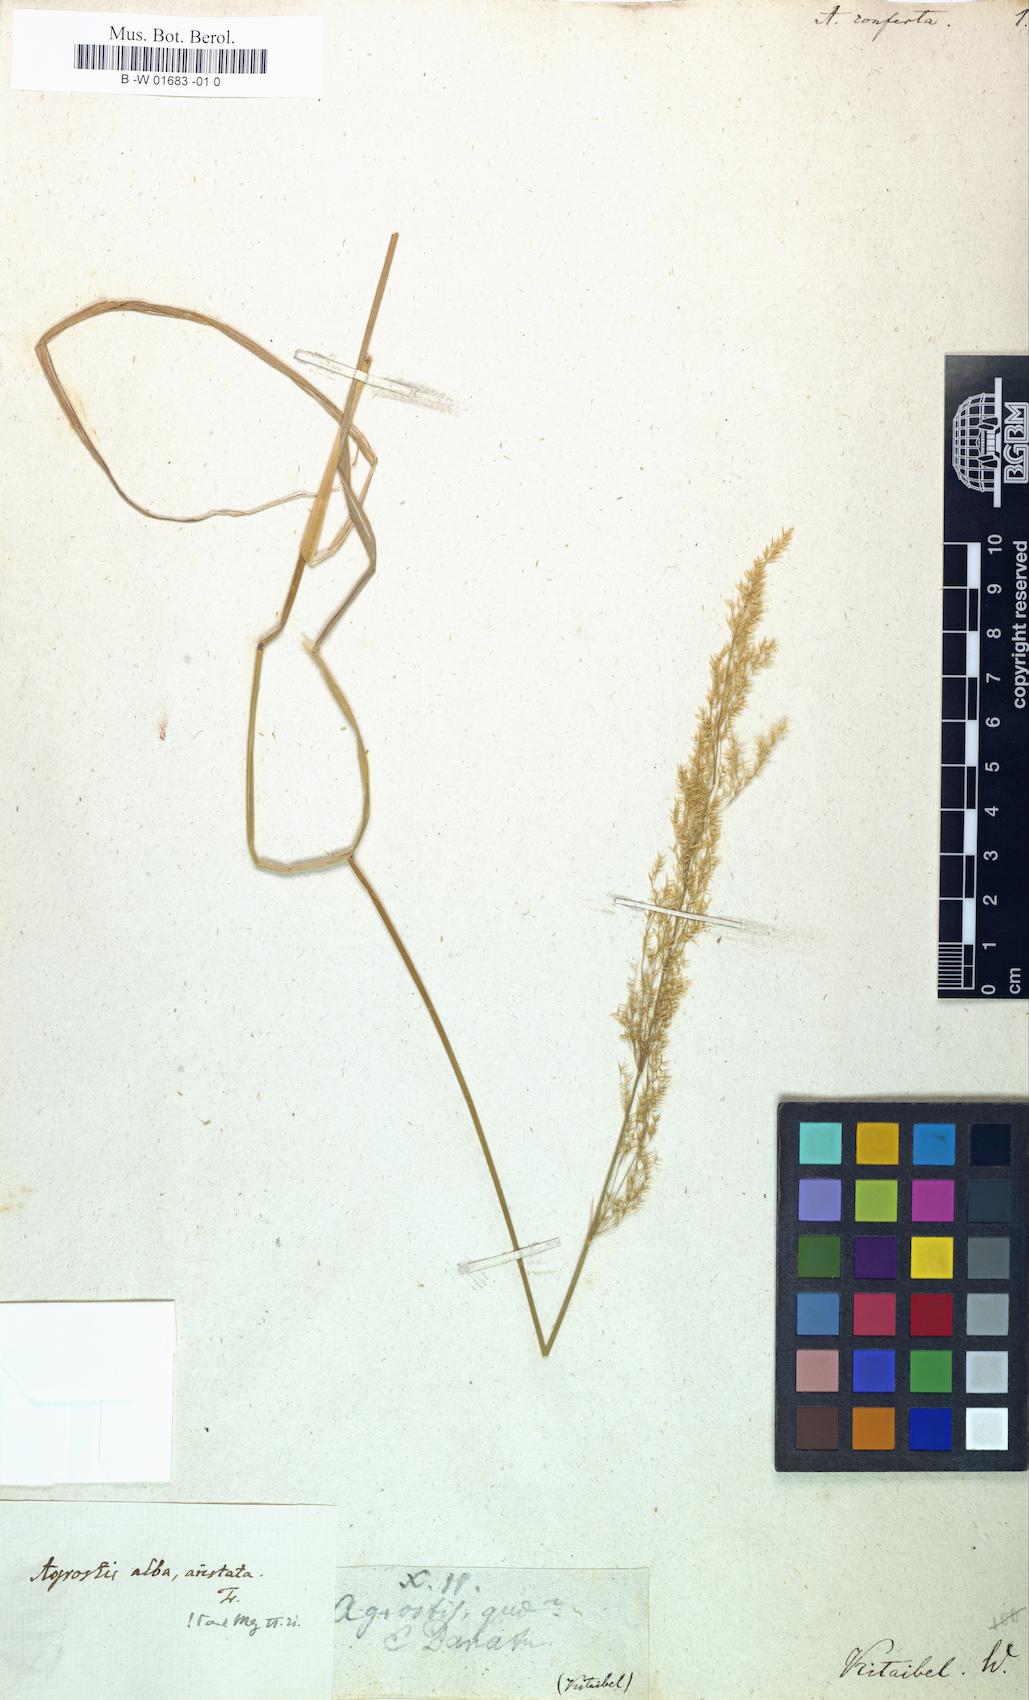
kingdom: Plantae
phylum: Tracheophyta
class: Liliopsida
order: Poales
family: Poaceae
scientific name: Poaceae
